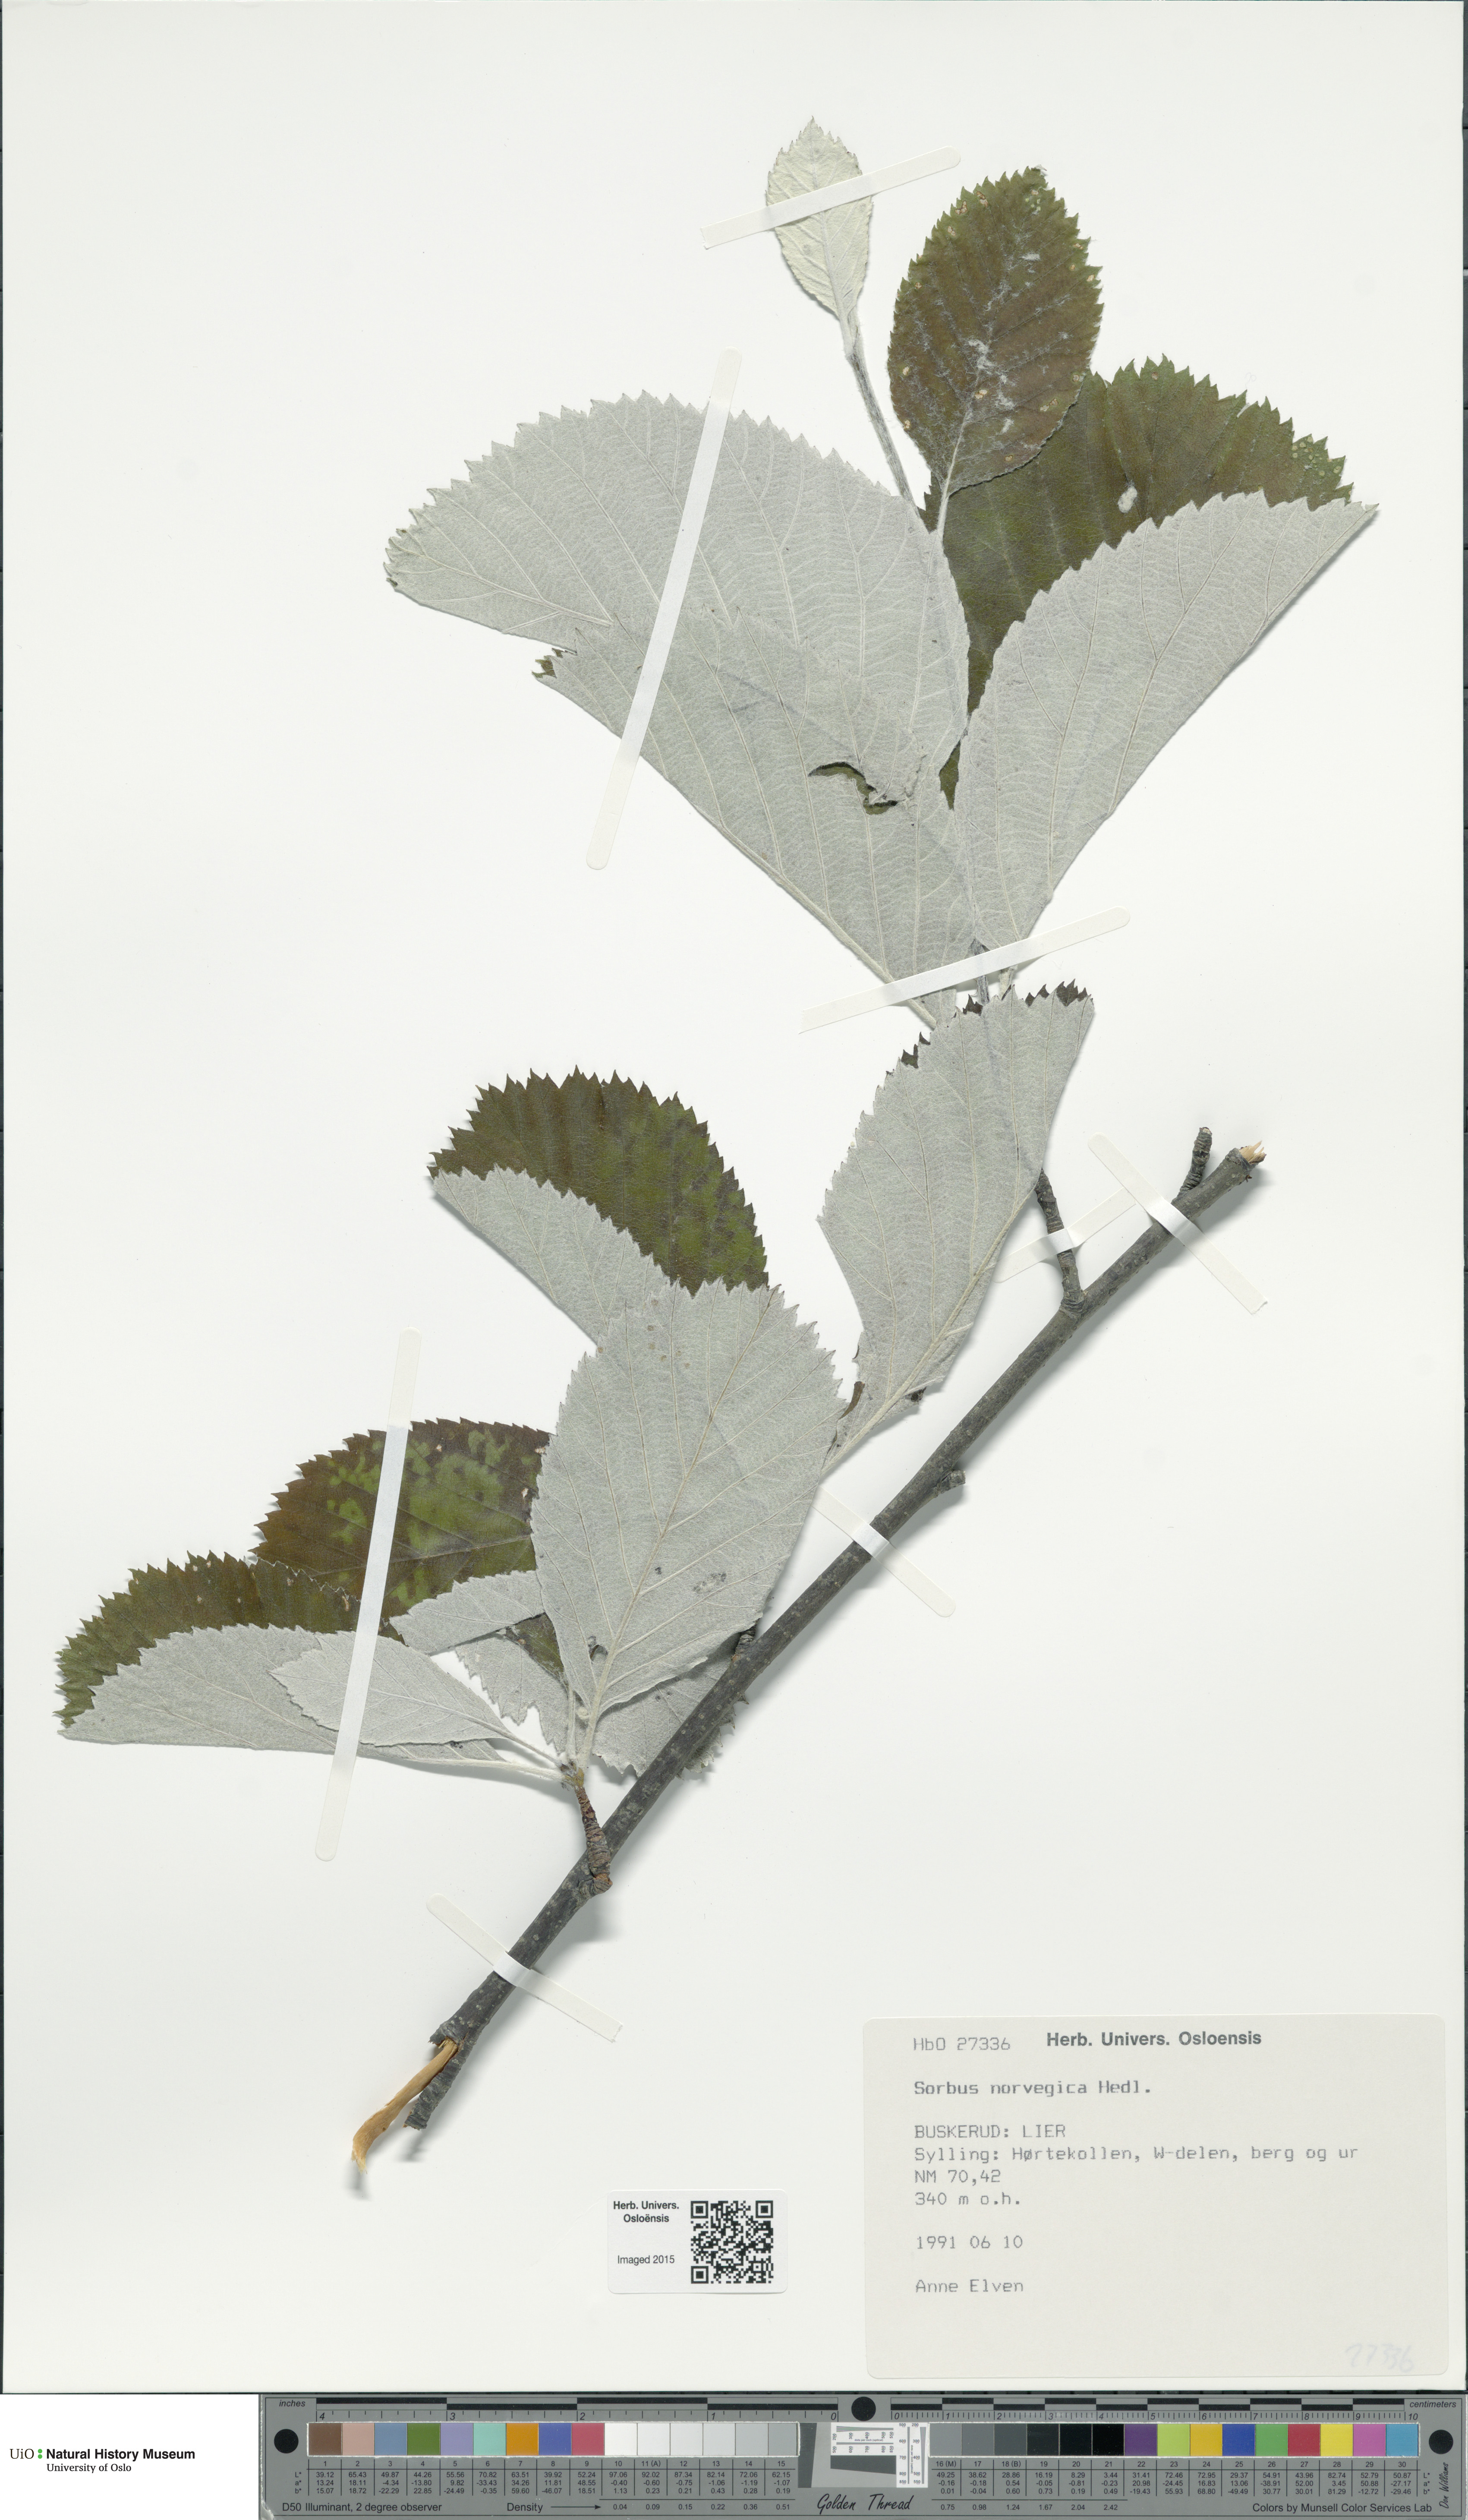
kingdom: Plantae
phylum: Tracheophyta
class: Magnoliopsida
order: Rosales
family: Rosaceae
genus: Aria
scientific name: Aria obtusifolia
